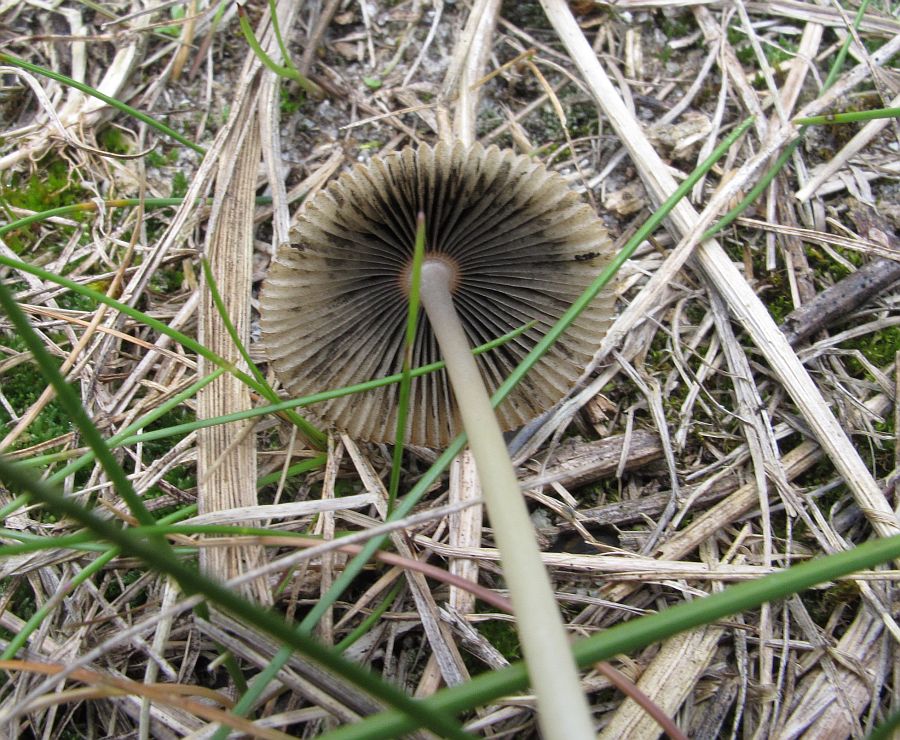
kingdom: Fungi
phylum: Basidiomycota
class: Agaricomycetes
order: Agaricales
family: Psathyrellaceae
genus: Parasola
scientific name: Parasola megasperma
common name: storsporet hjulhat
